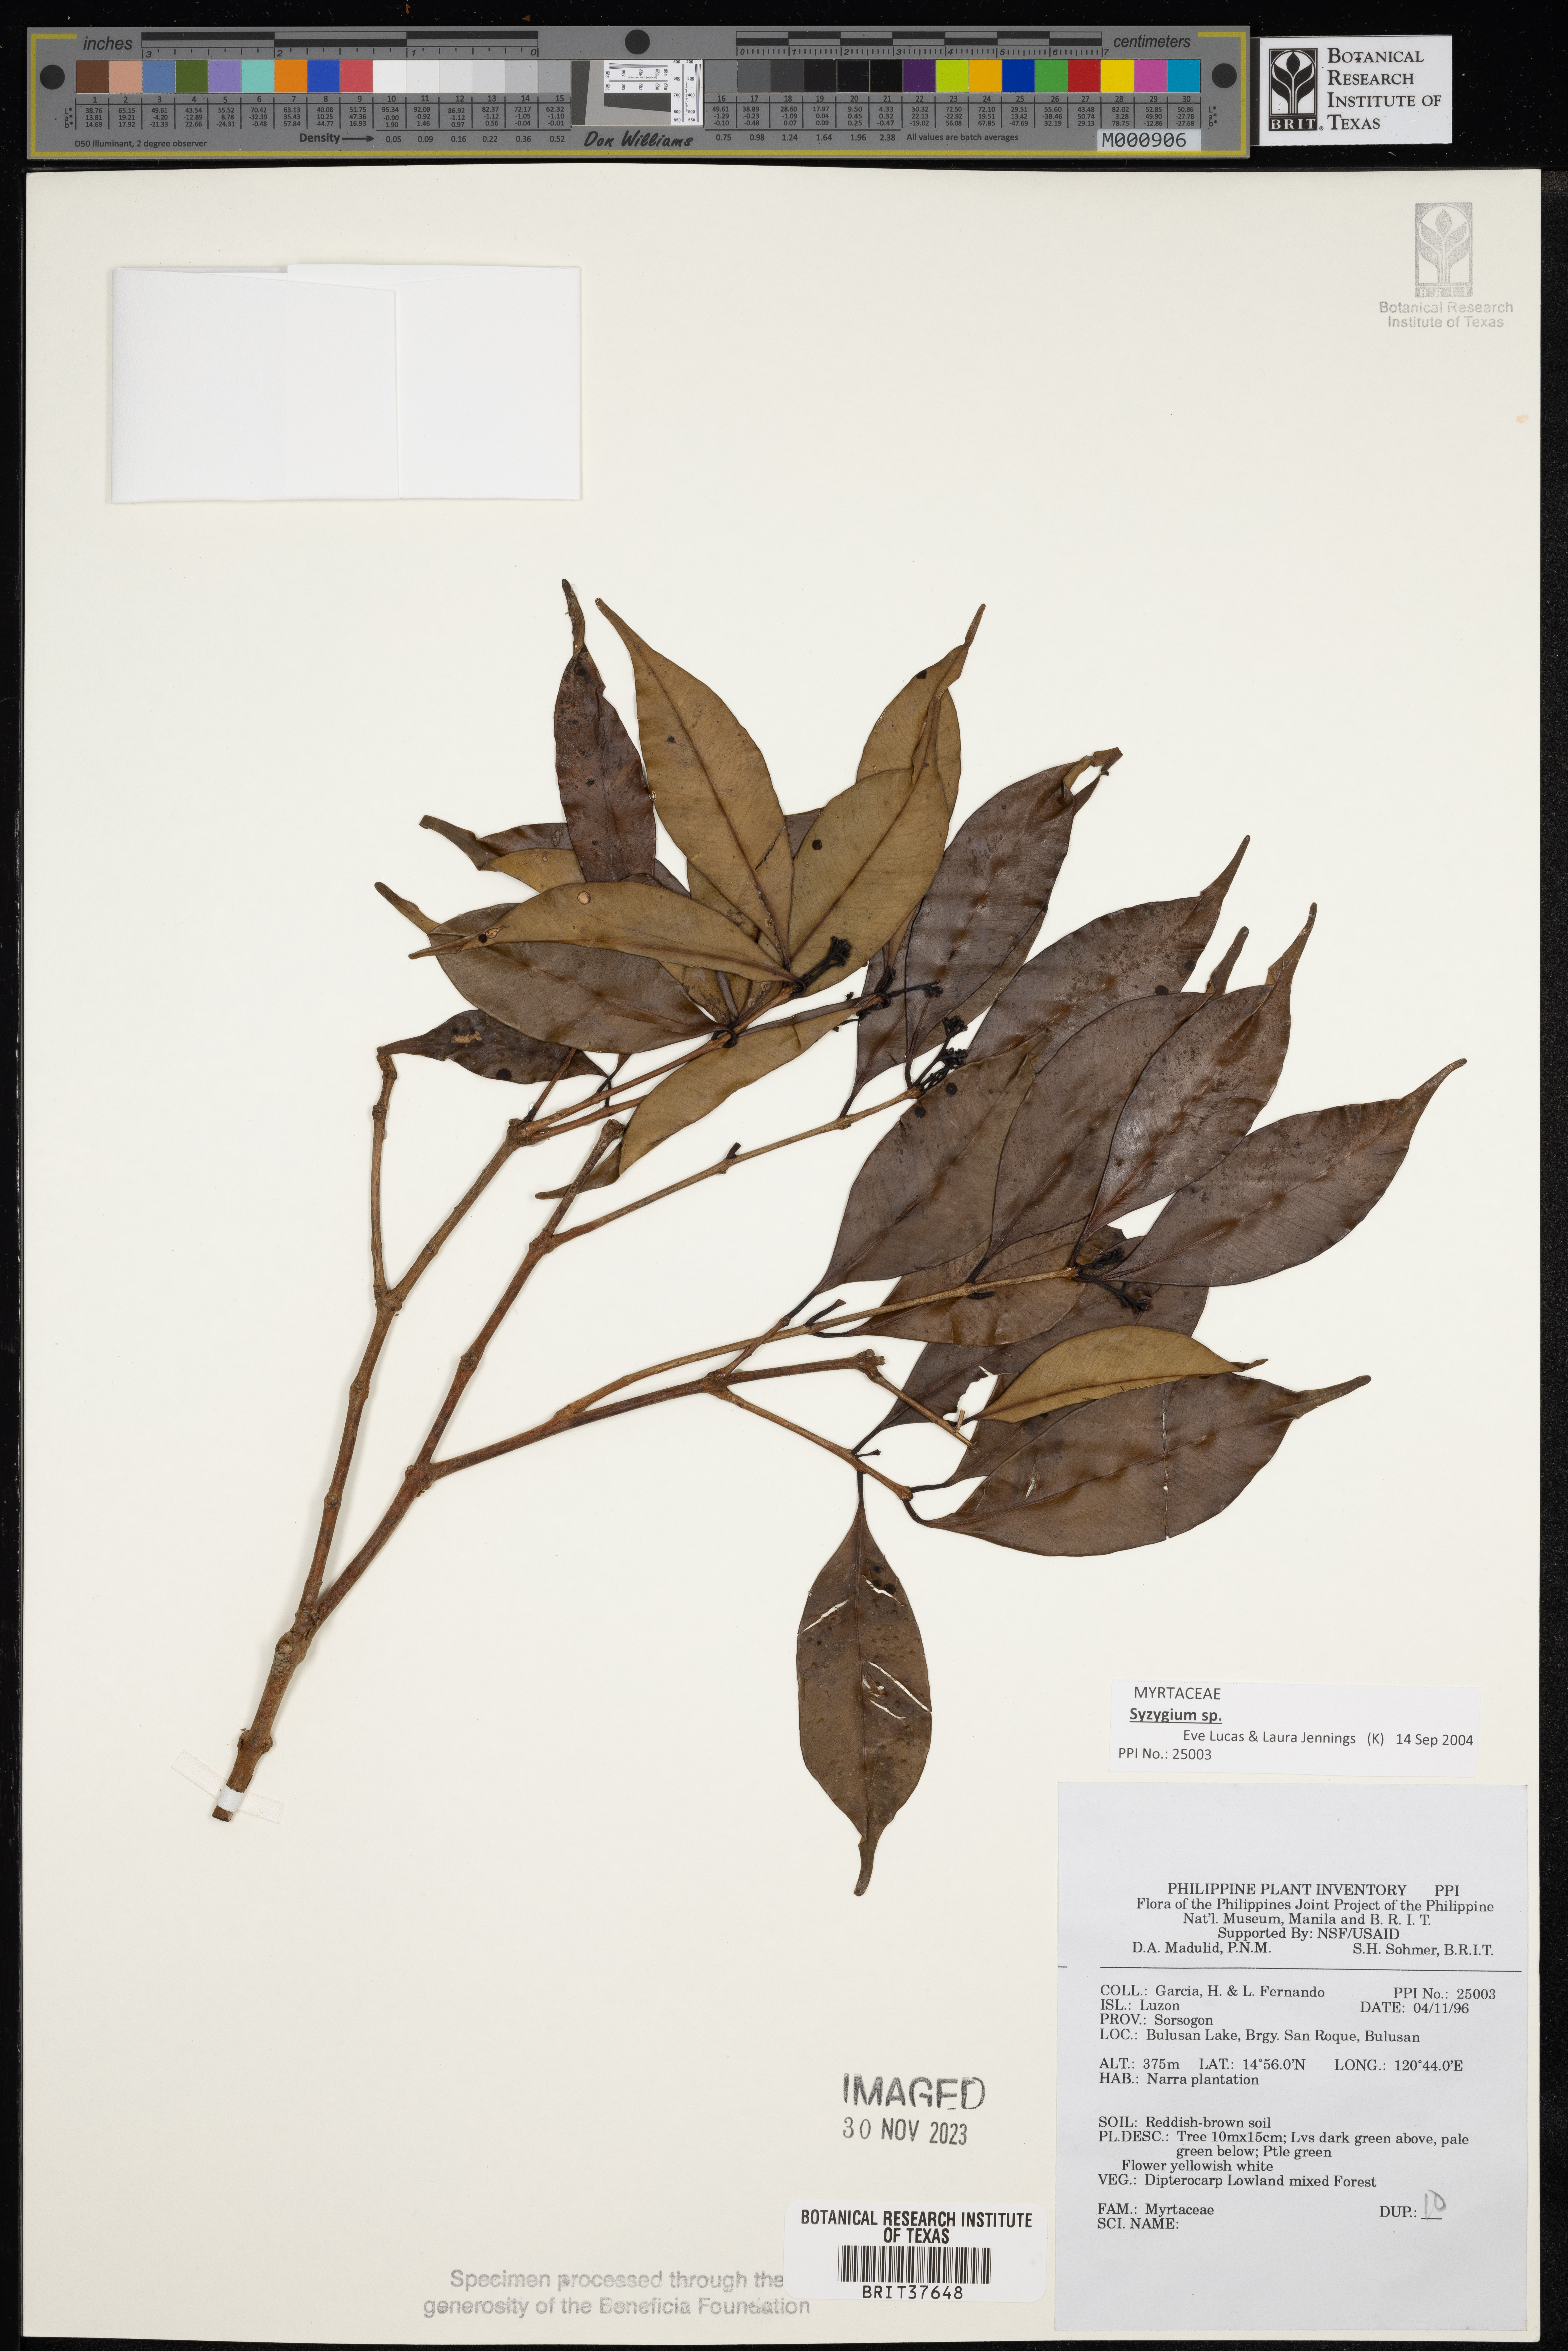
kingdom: Plantae
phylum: Tracheophyta
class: Magnoliopsida
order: Myrtales
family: Myrtaceae
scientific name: Myrtaceae
